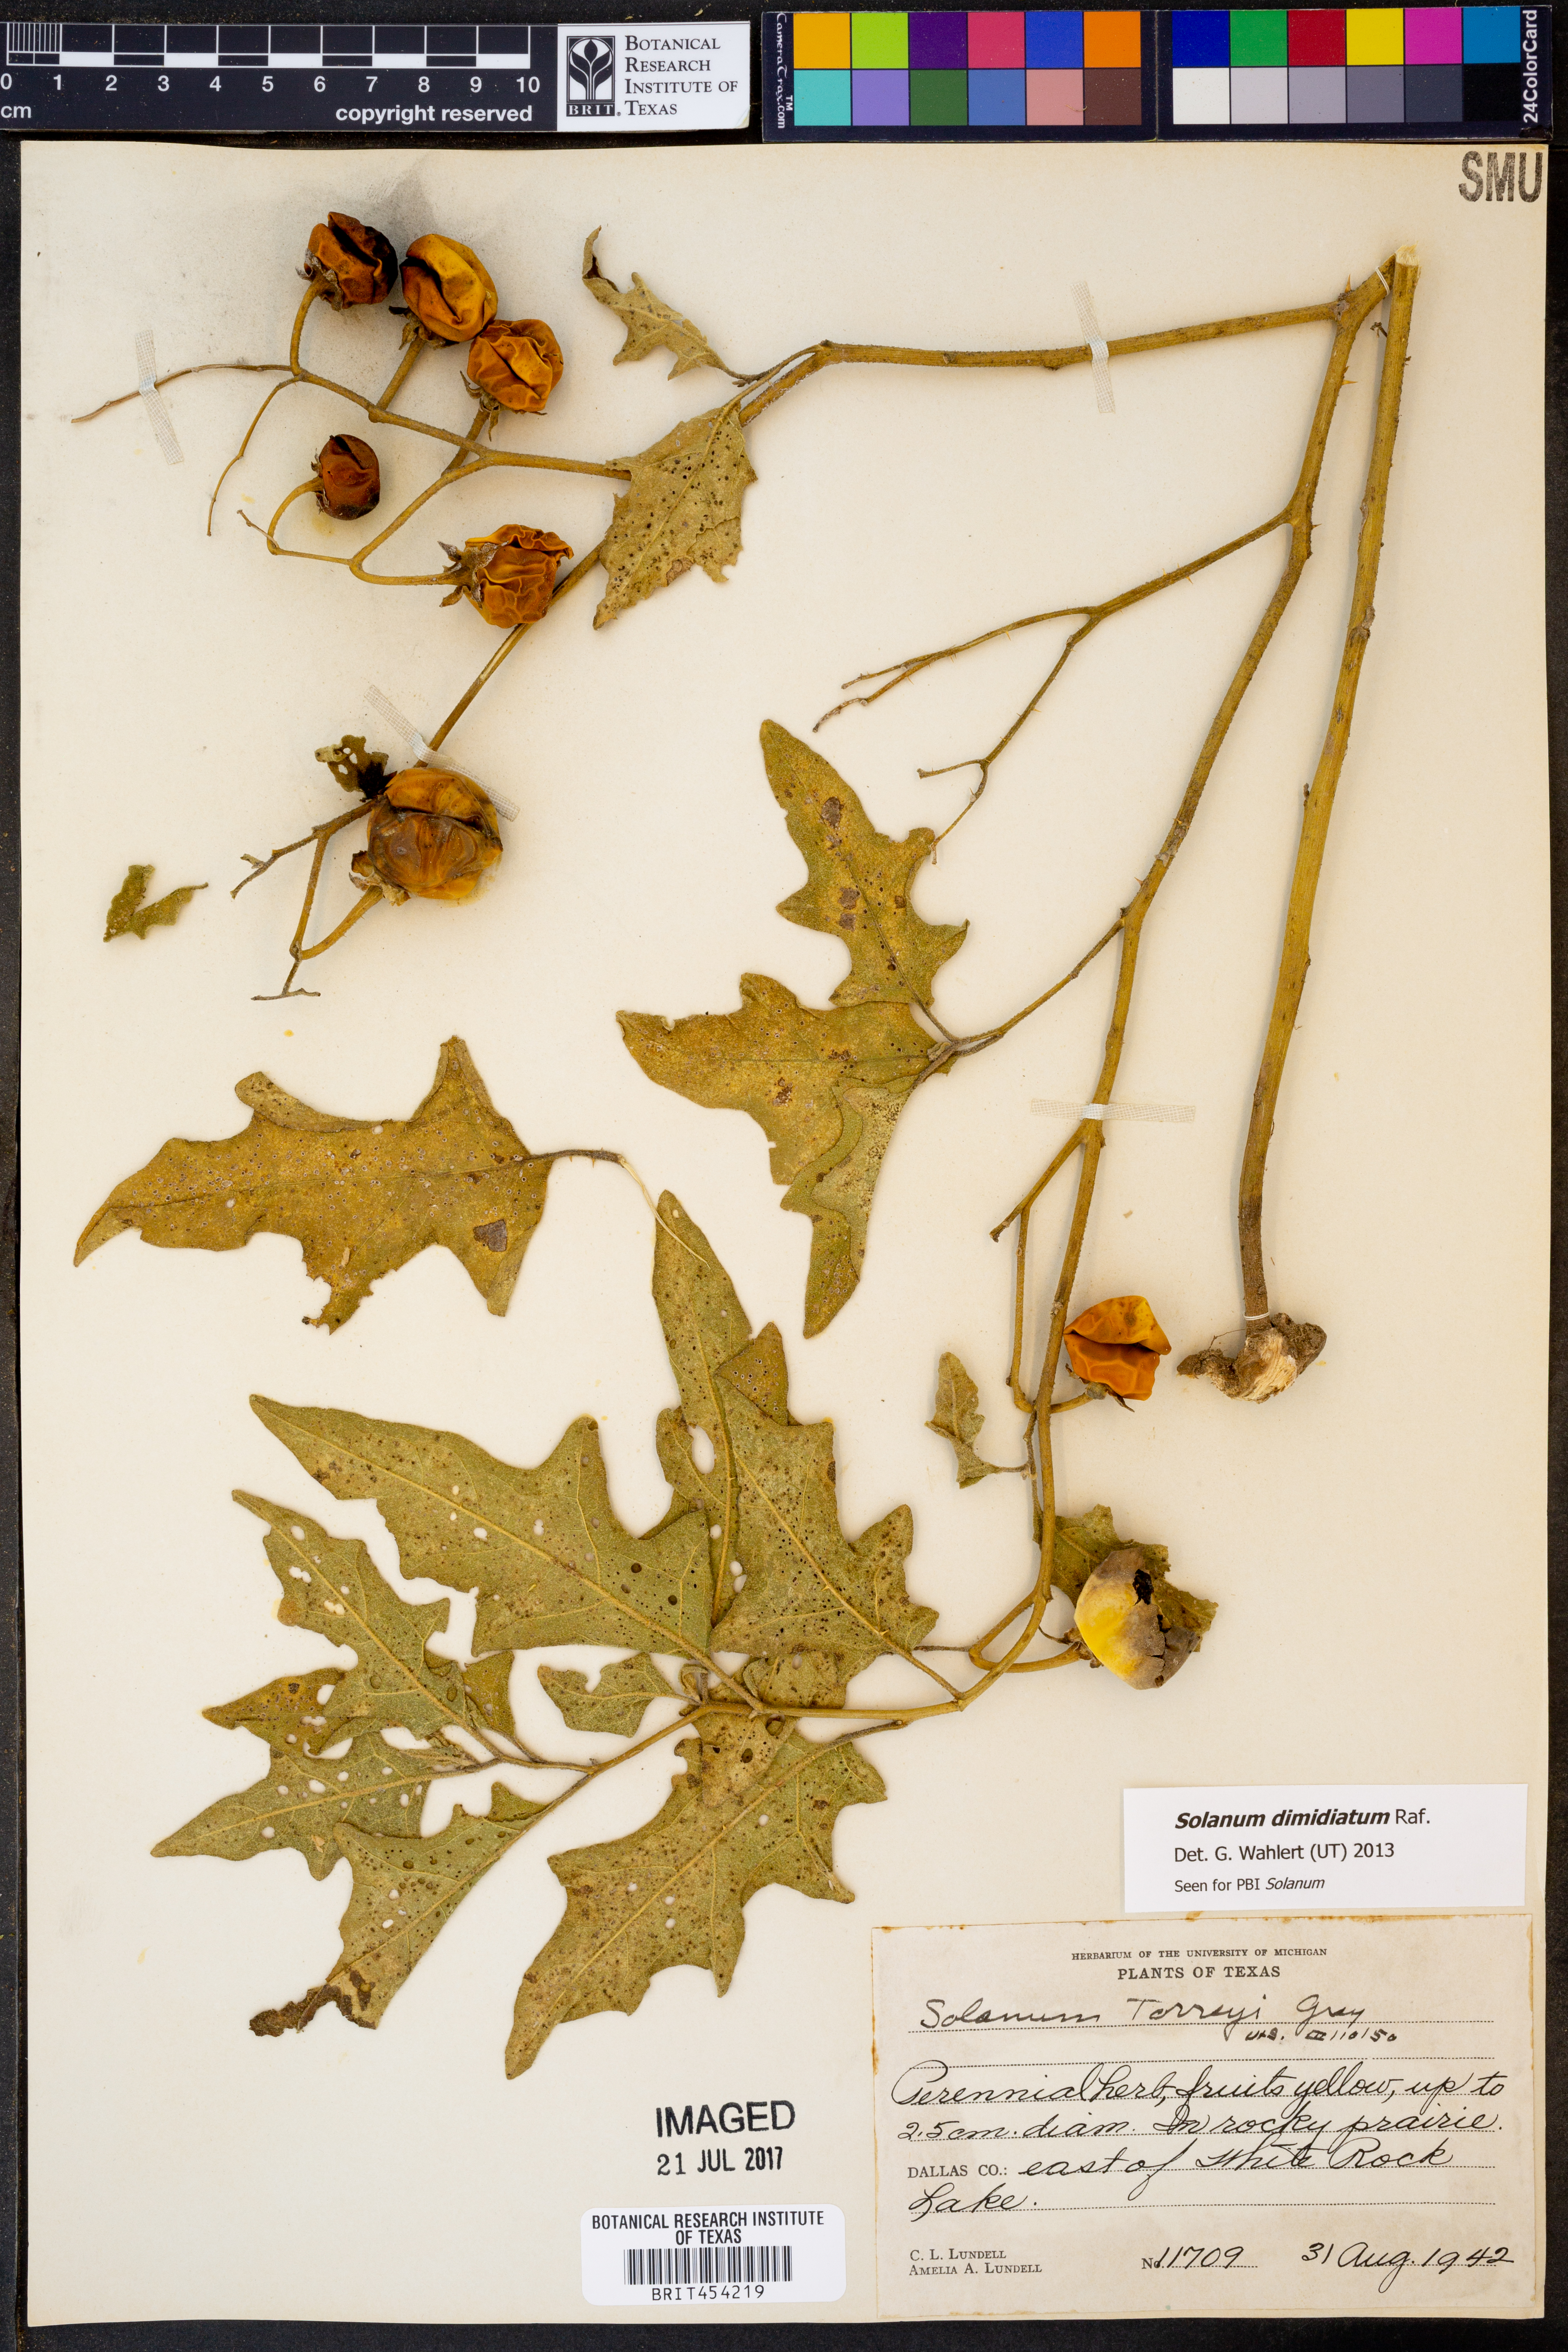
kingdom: Plantae
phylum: Tracheophyta
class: Magnoliopsida
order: Solanales
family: Solanaceae
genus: Solanum
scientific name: Solanum dimidiatum
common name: Carolina horse-nettle
